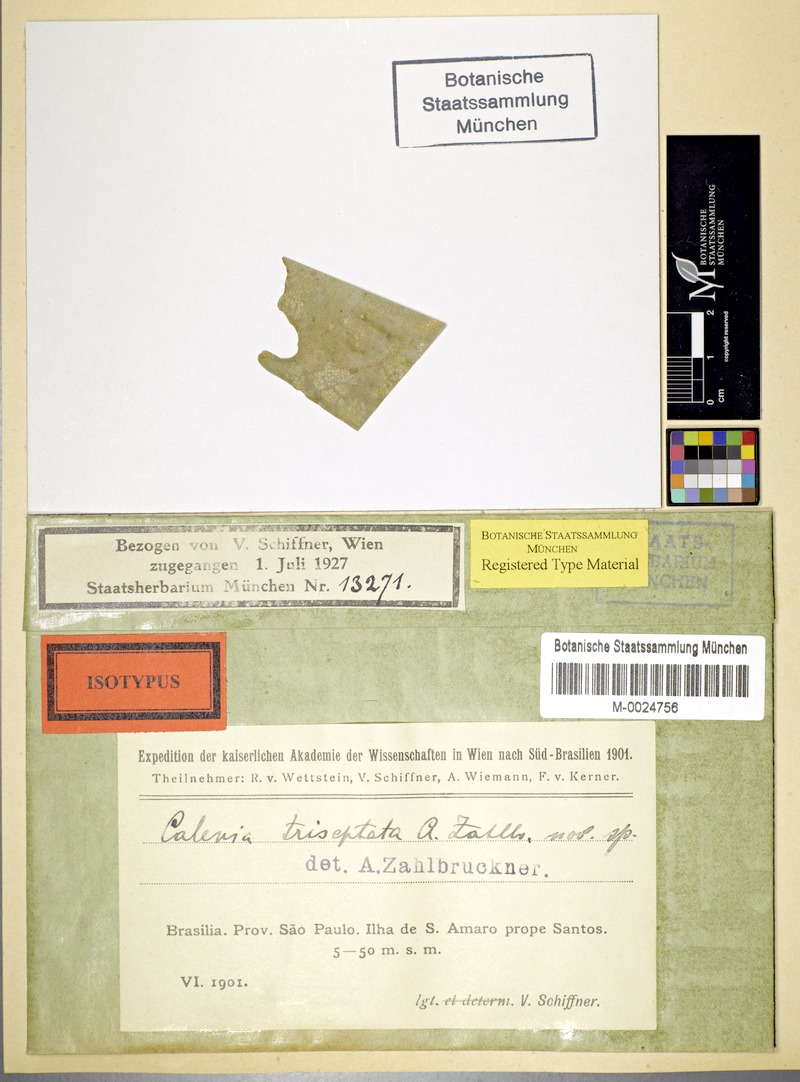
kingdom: Fungi
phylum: Ascomycota
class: Lecanoromycetes
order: Ostropales
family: Gomphillaceae
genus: Calenia
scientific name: Calenia triseptata
